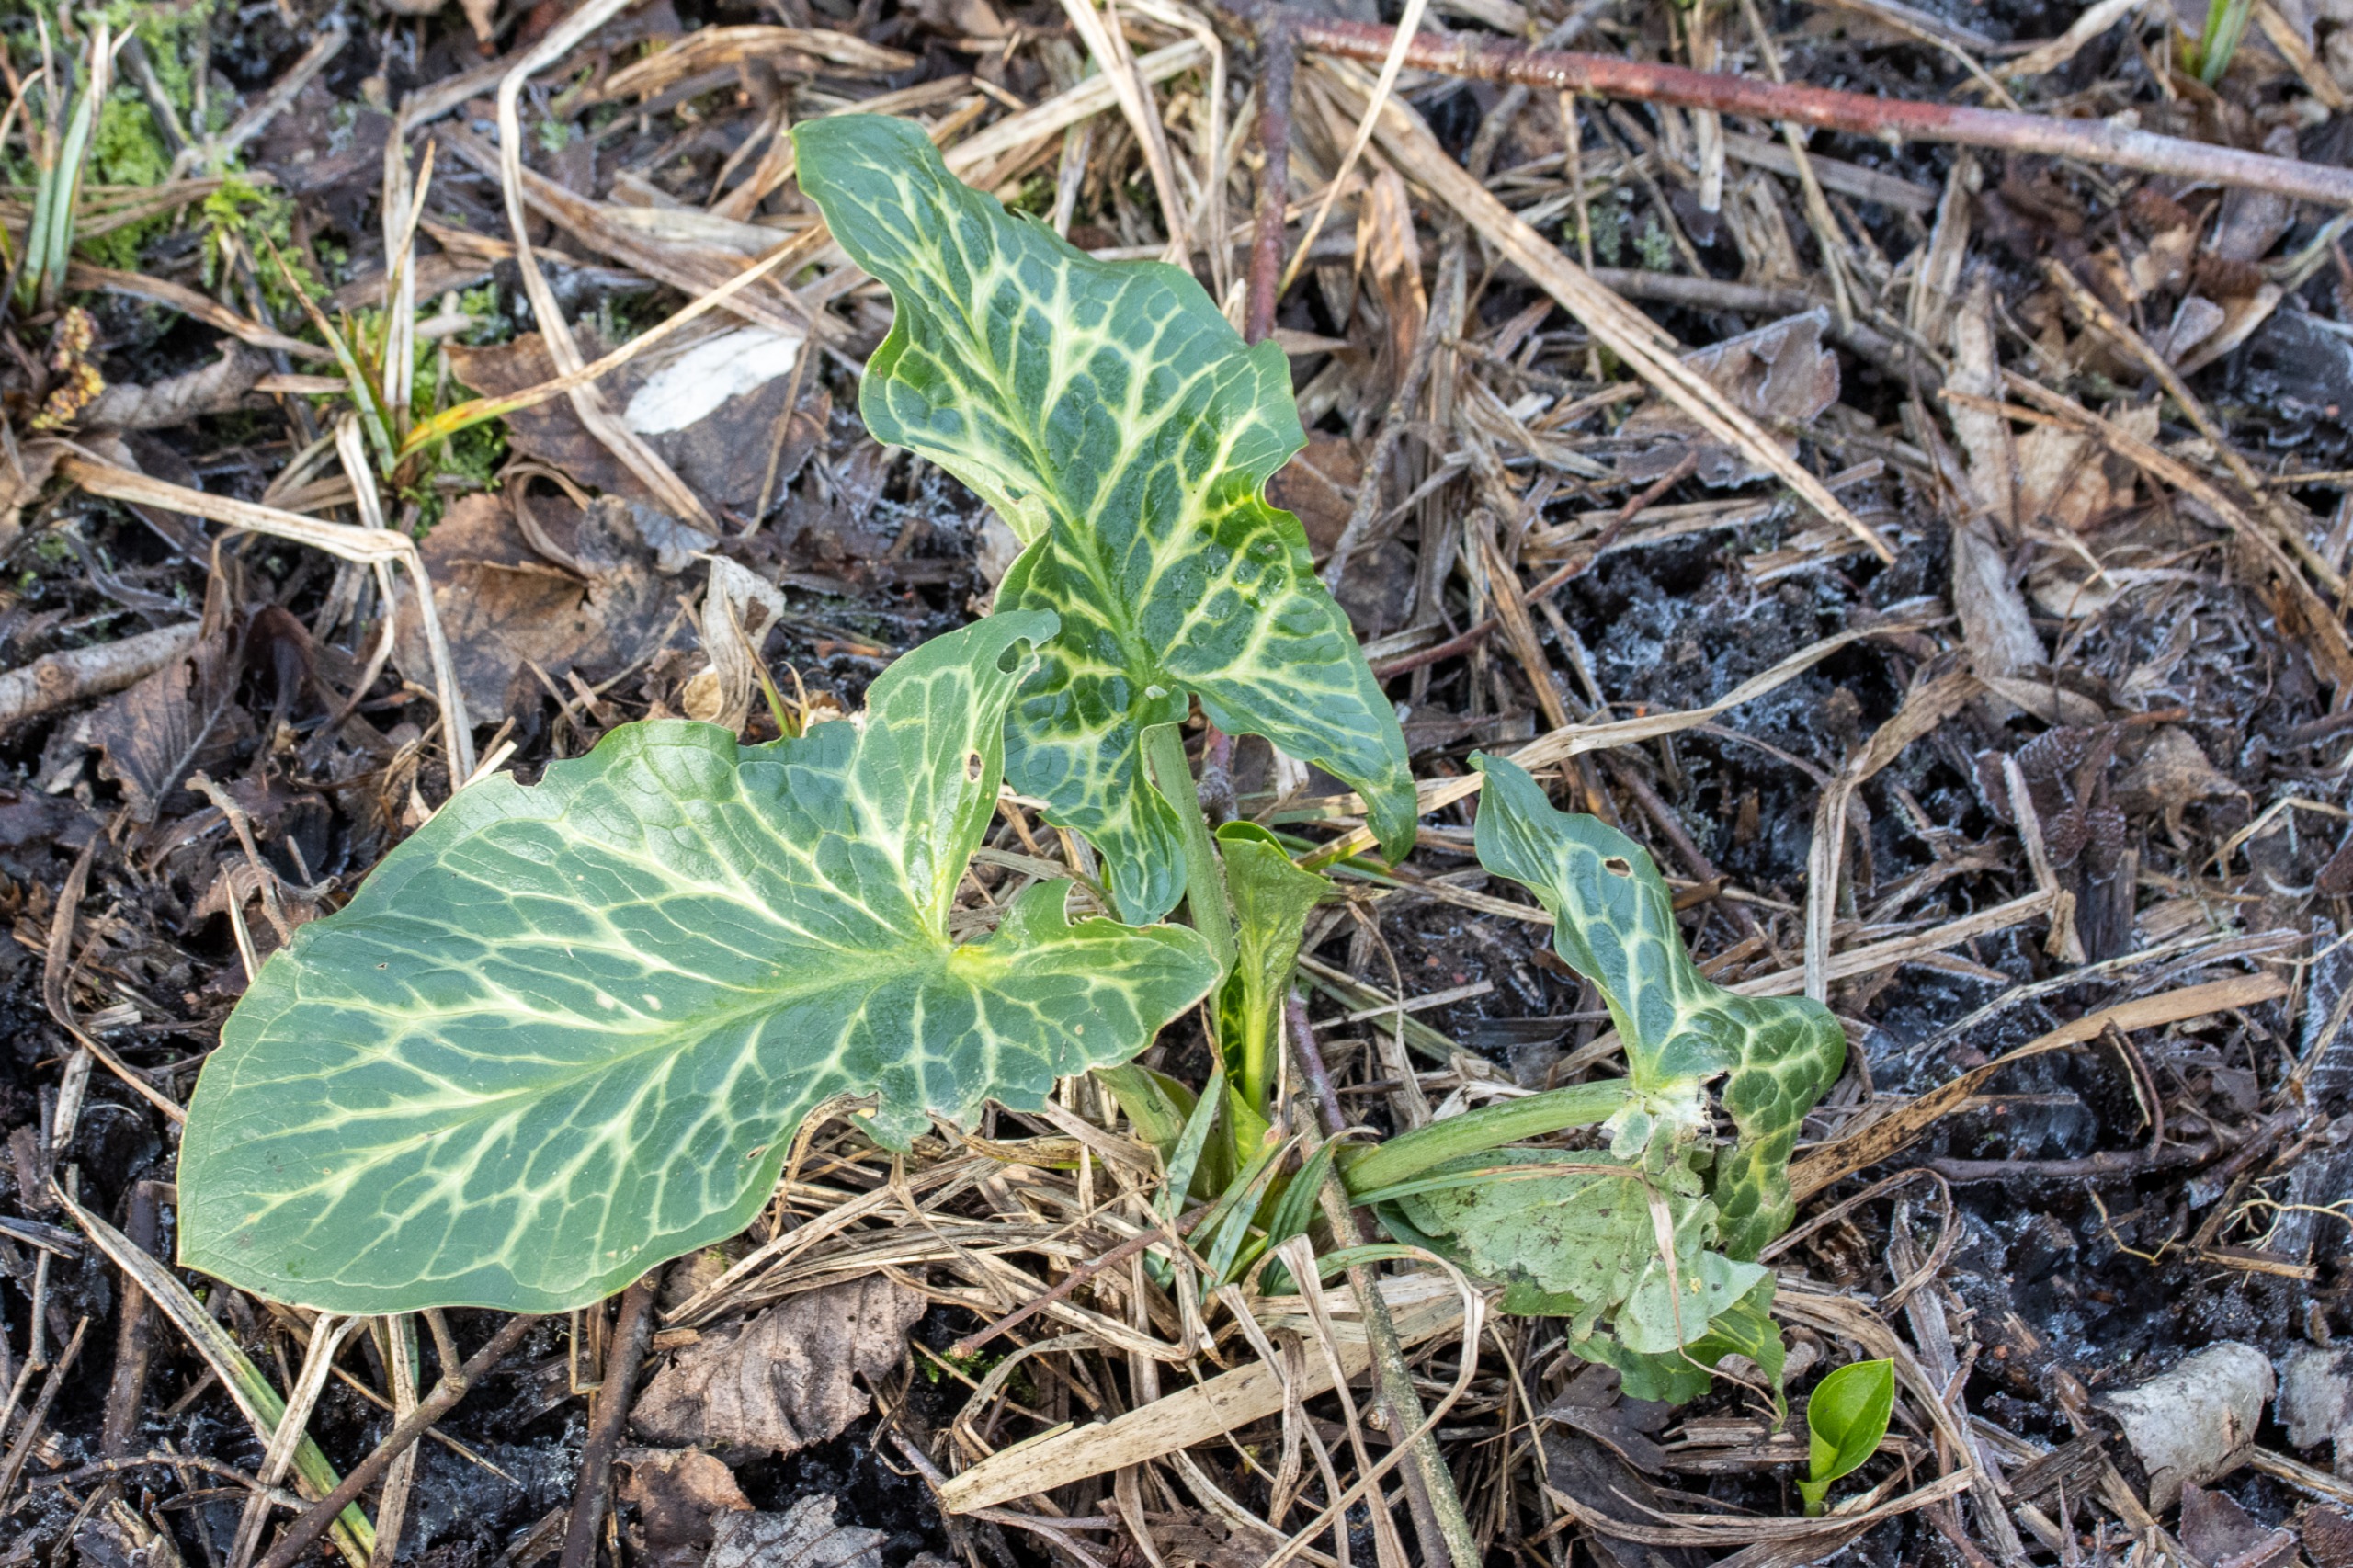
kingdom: Plantae
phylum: Tracheophyta
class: Liliopsida
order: Alismatales
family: Araceae
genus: Arum
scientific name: Arum italicum
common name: Italiensk arum
